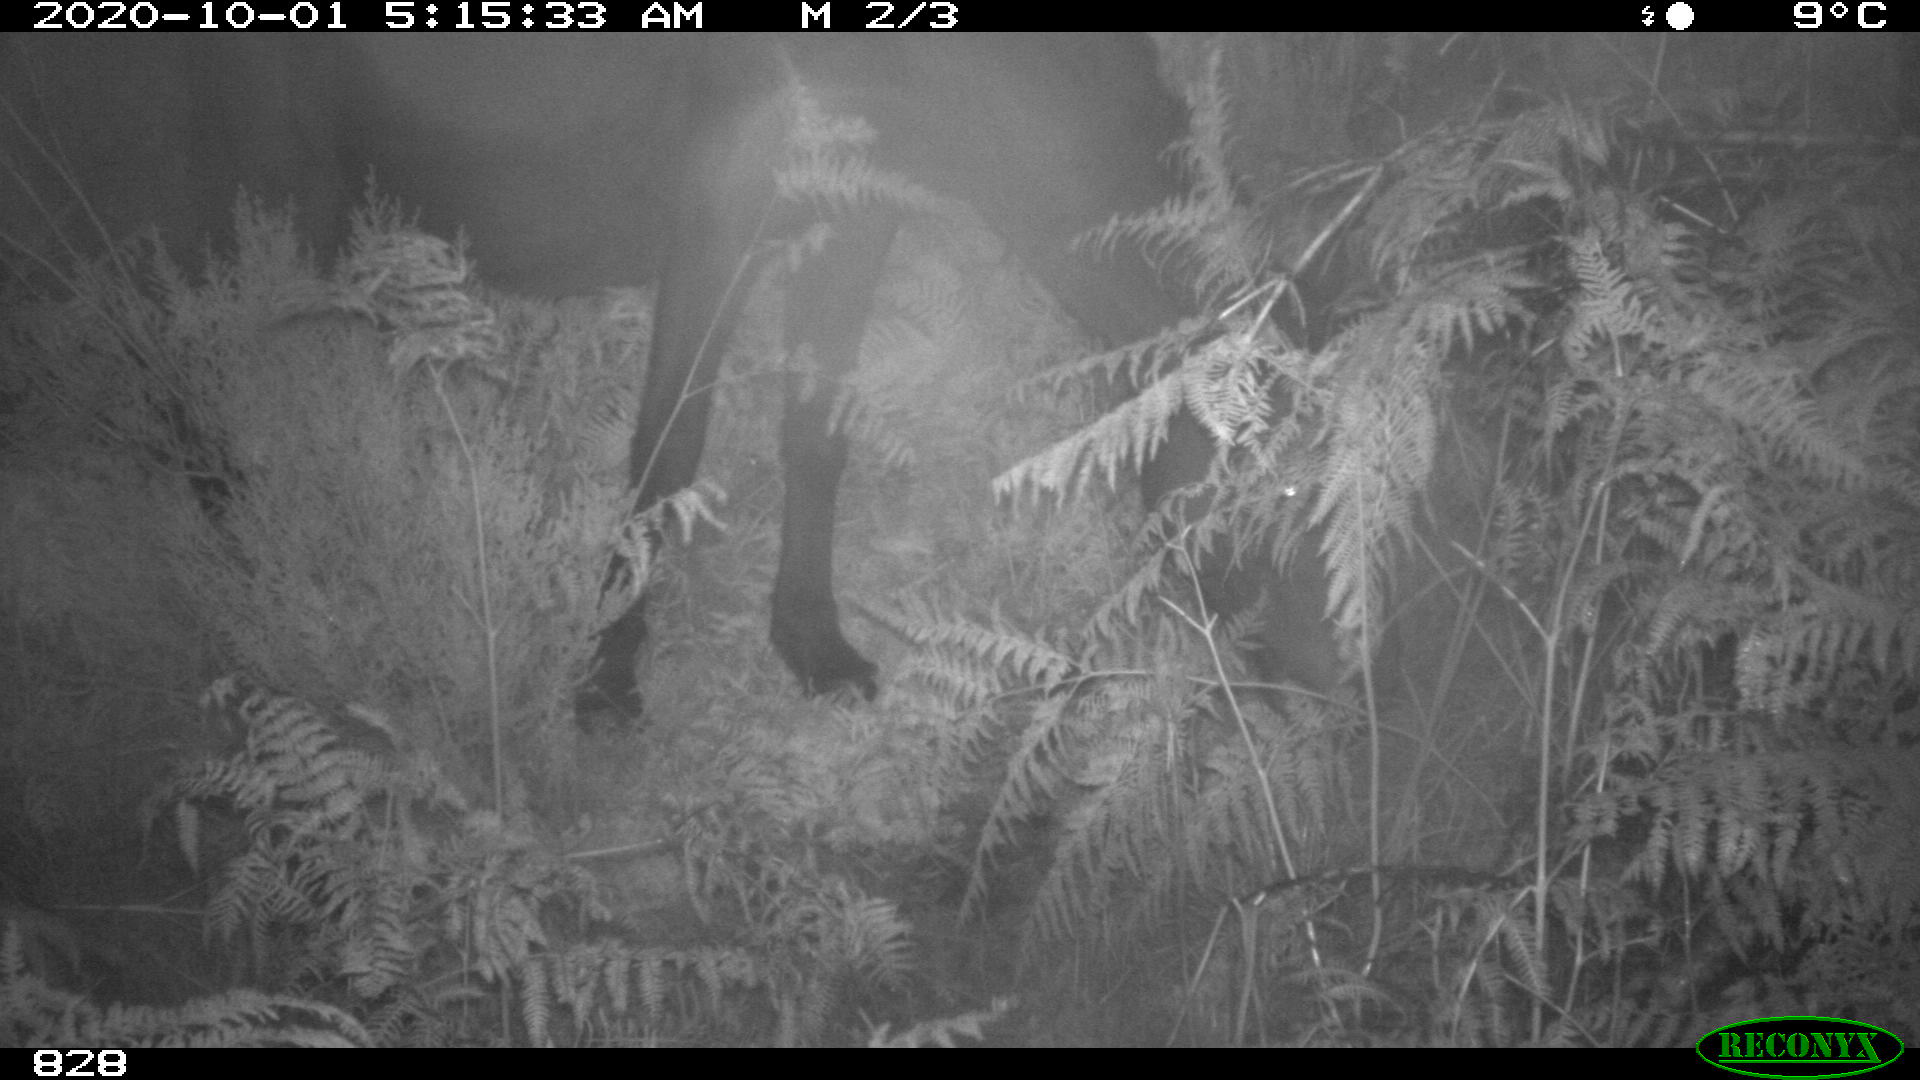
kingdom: Animalia
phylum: Chordata
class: Mammalia
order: Perissodactyla
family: Equidae
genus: Equus
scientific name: Equus caballus
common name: Horse
